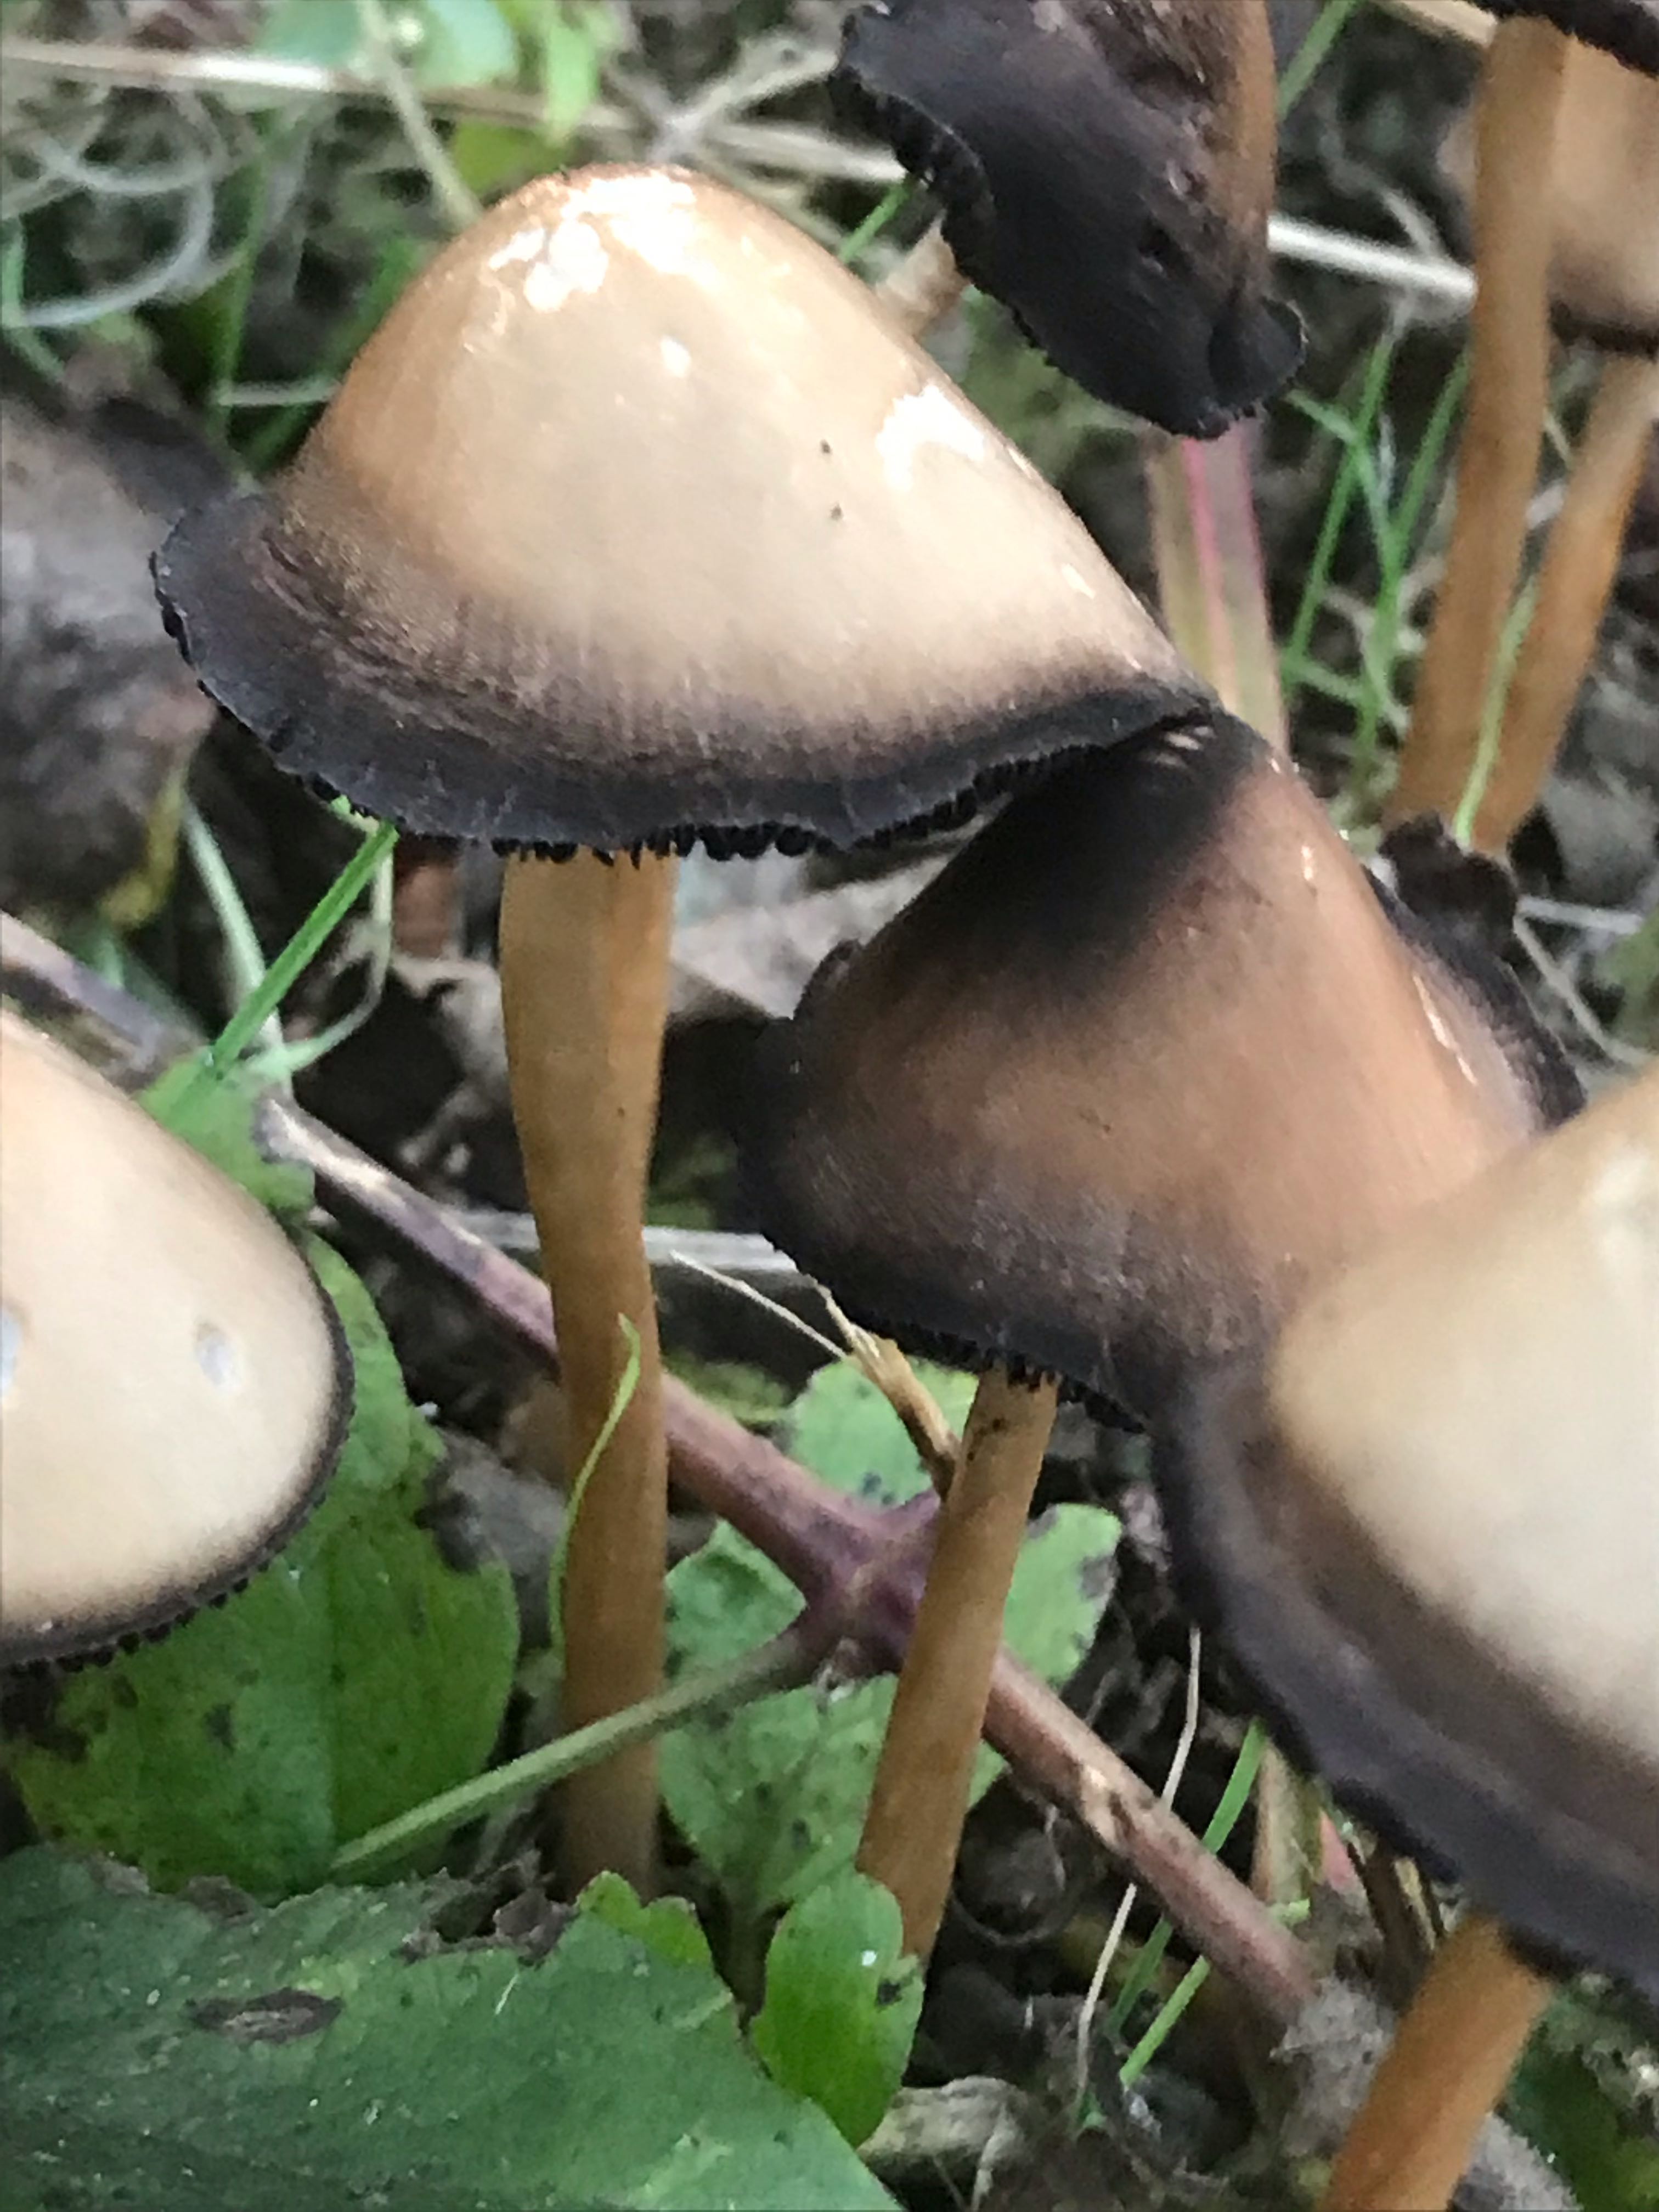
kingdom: Fungi
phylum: Basidiomycota
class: Agaricomycetes
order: Agaricales
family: Psathyrellaceae
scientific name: Psathyrellaceae
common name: mørkhatfamilien
